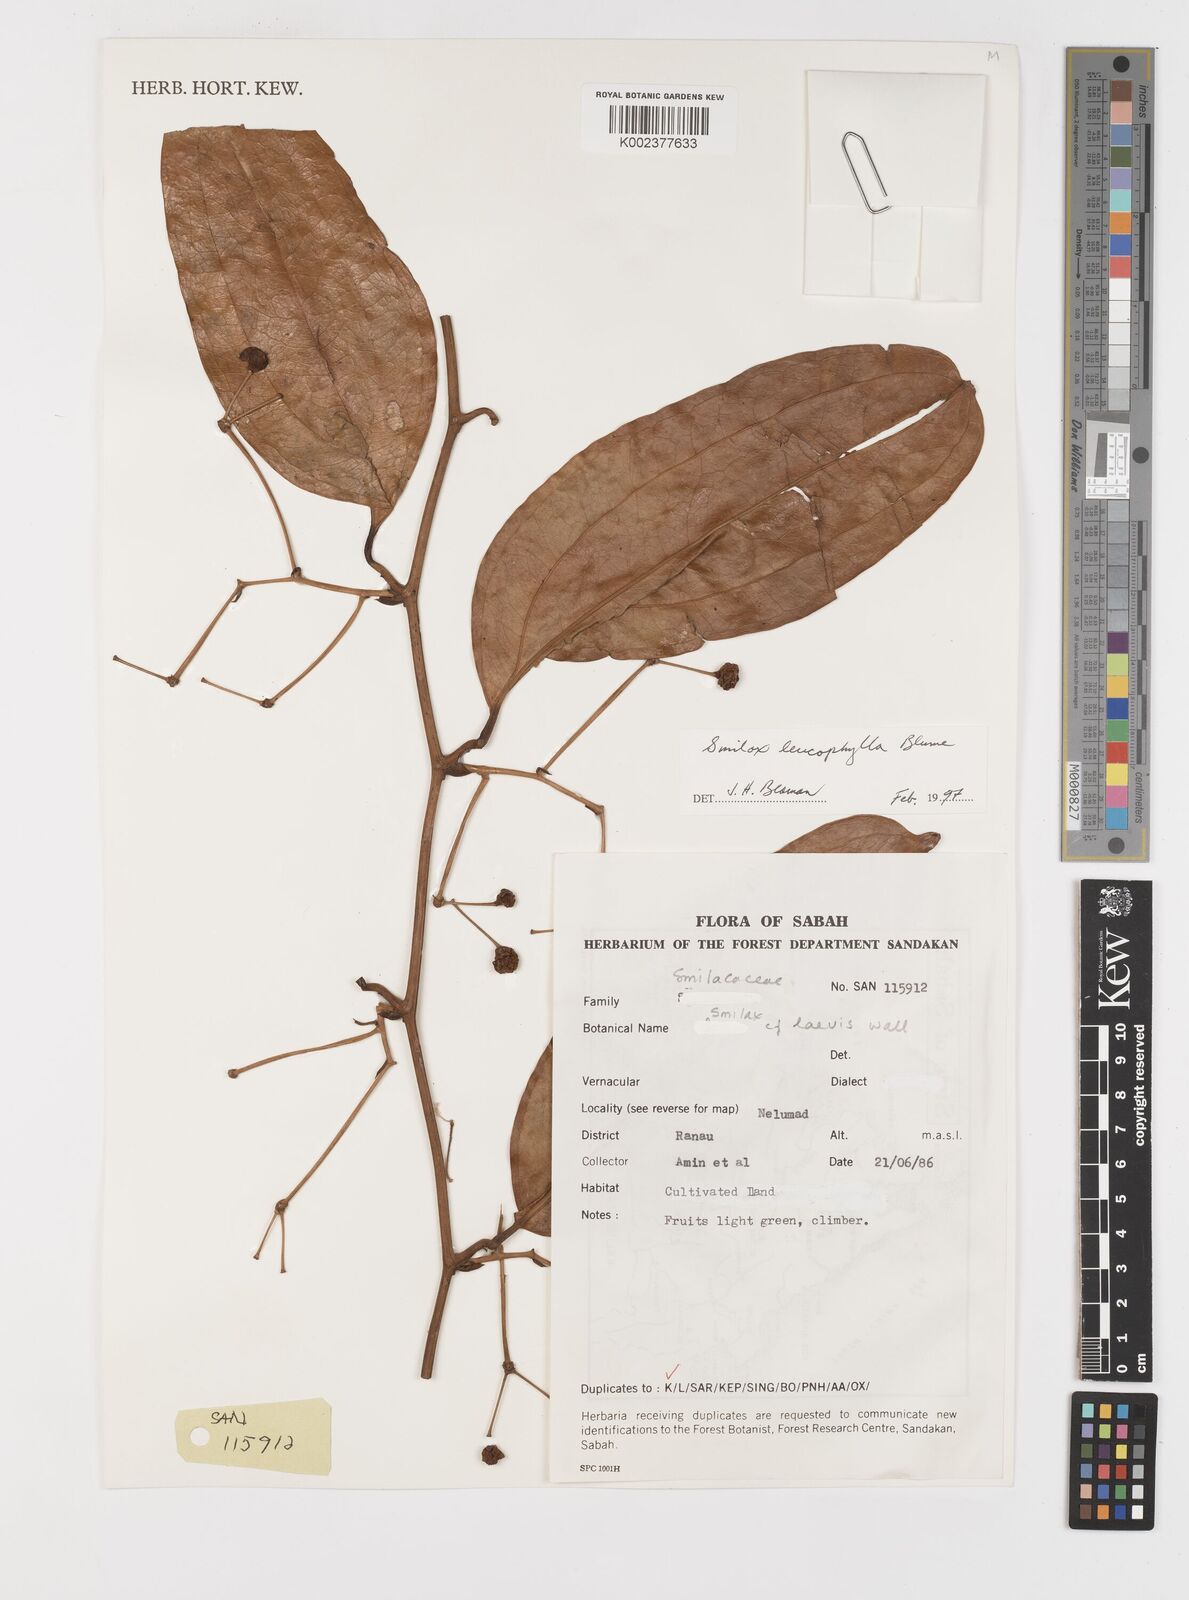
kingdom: Plantae
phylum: Tracheophyta
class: Liliopsida
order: Liliales
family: Smilacaceae
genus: Smilax
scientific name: Smilax leucophylla
